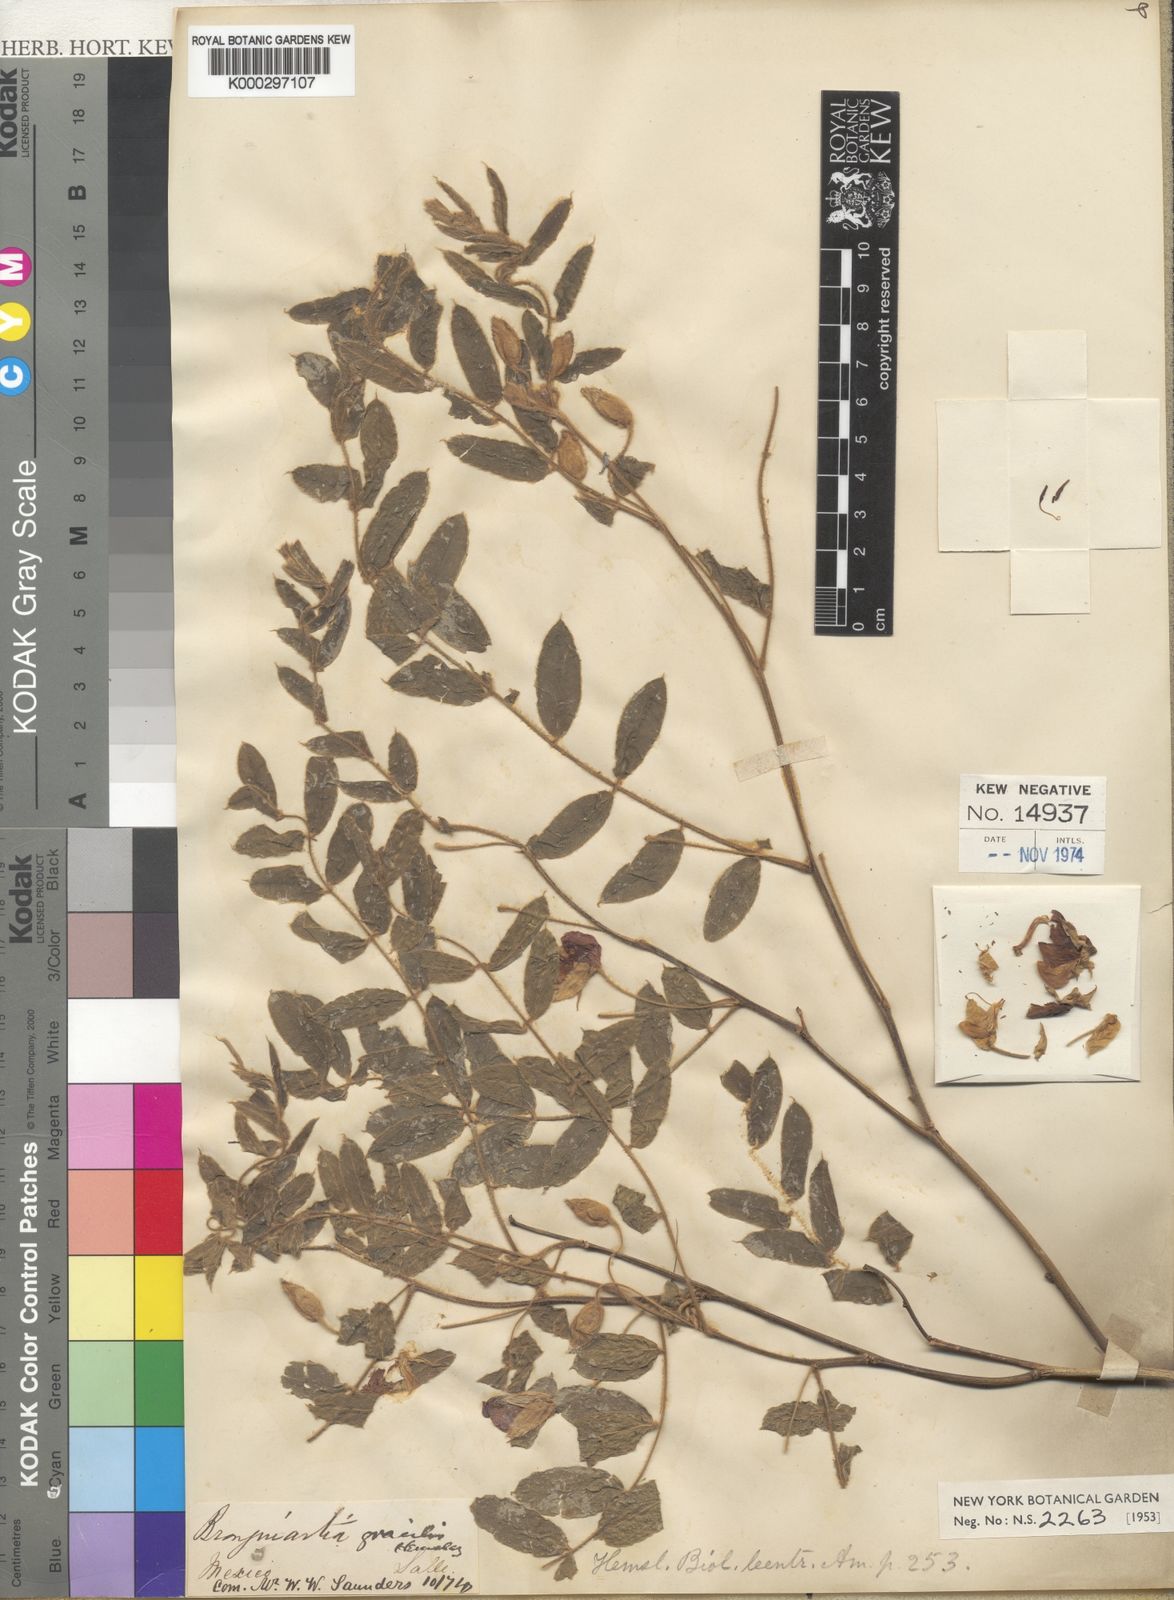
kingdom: Plantae
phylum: Tracheophyta
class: Magnoliopsida
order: Fabales
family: Fabaceae
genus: Brongniartia
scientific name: Brongniartia sericea
